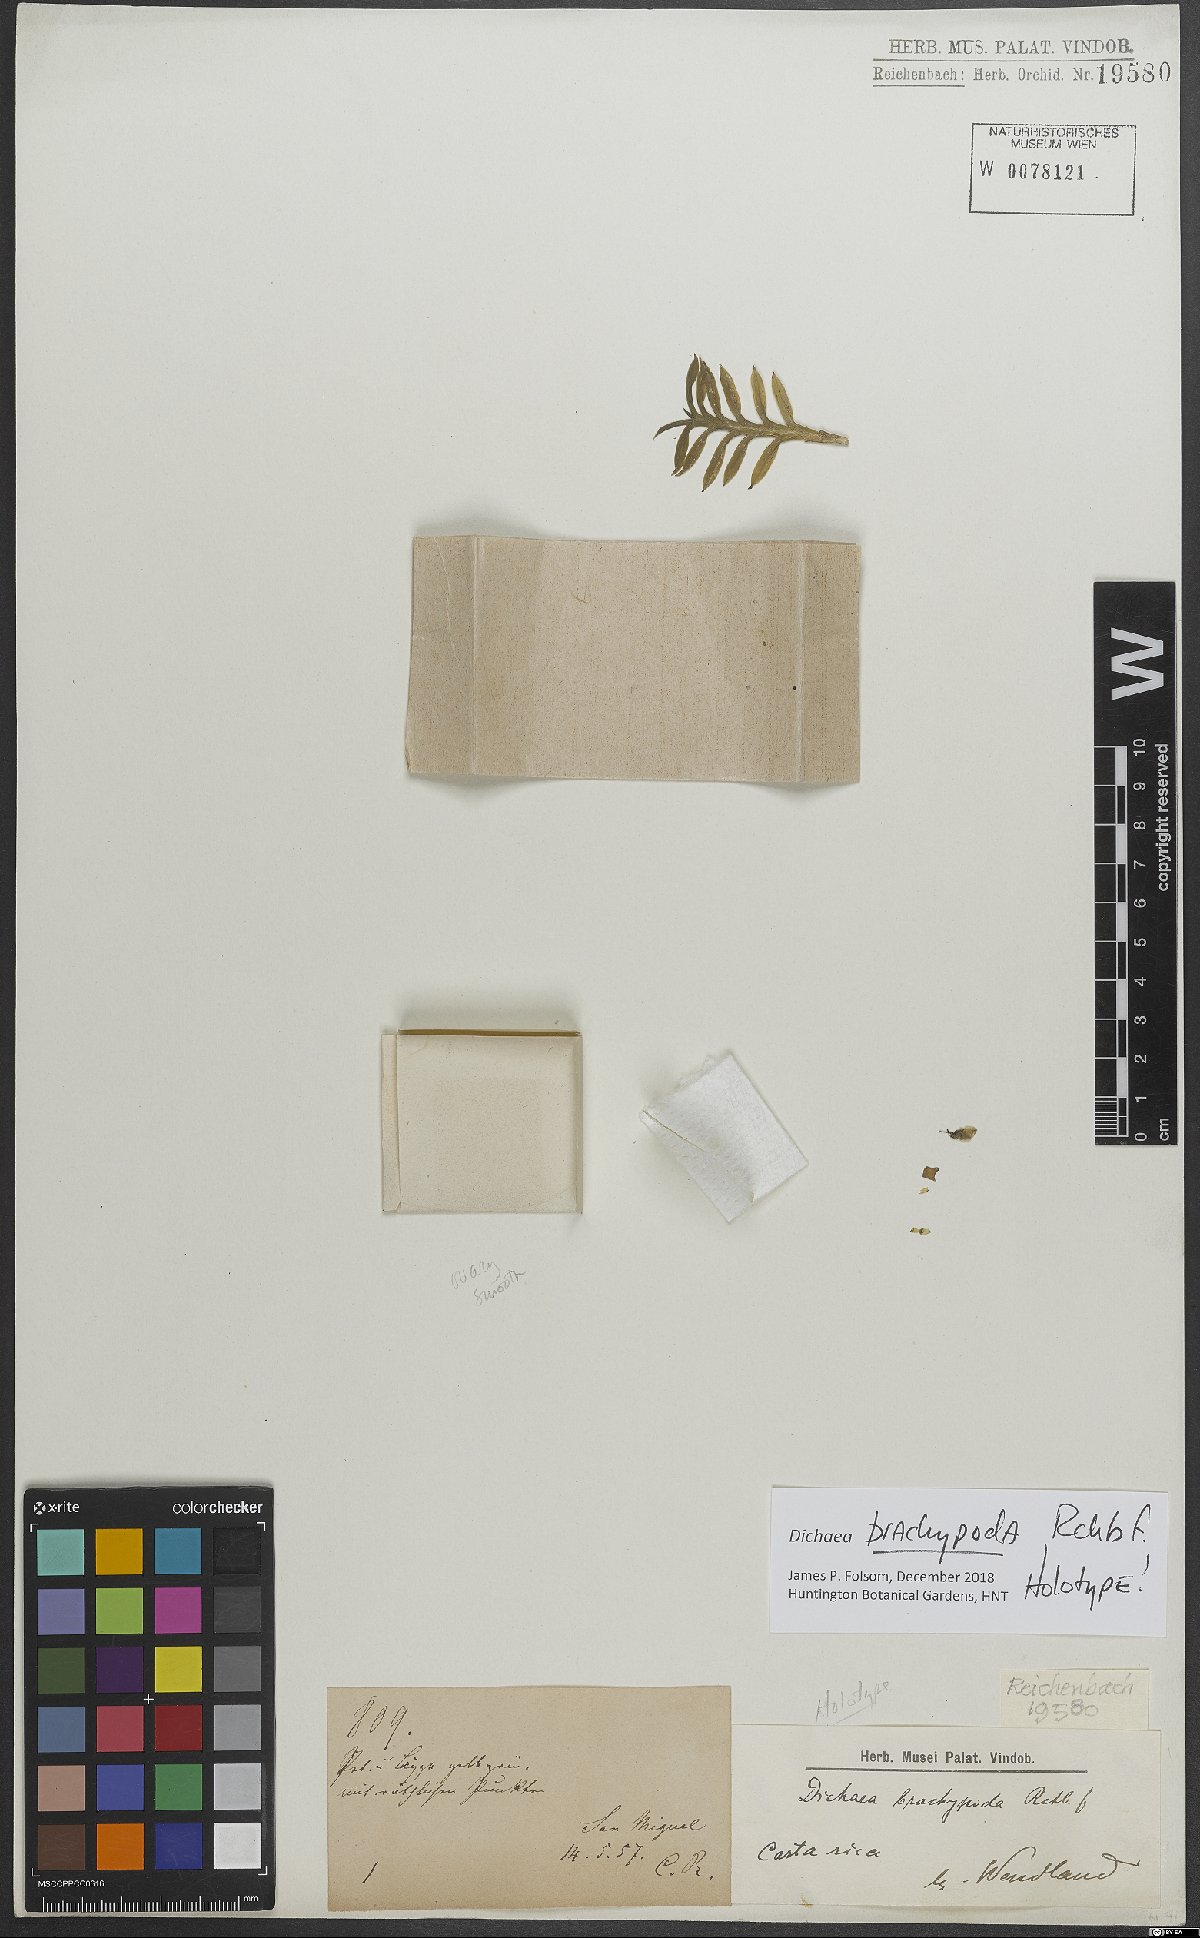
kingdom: Plantae
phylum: Tracheophyta
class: Liliopsida
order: Asparagales
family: Orchidaceae
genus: Dichaea
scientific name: Dichaea panamensis
